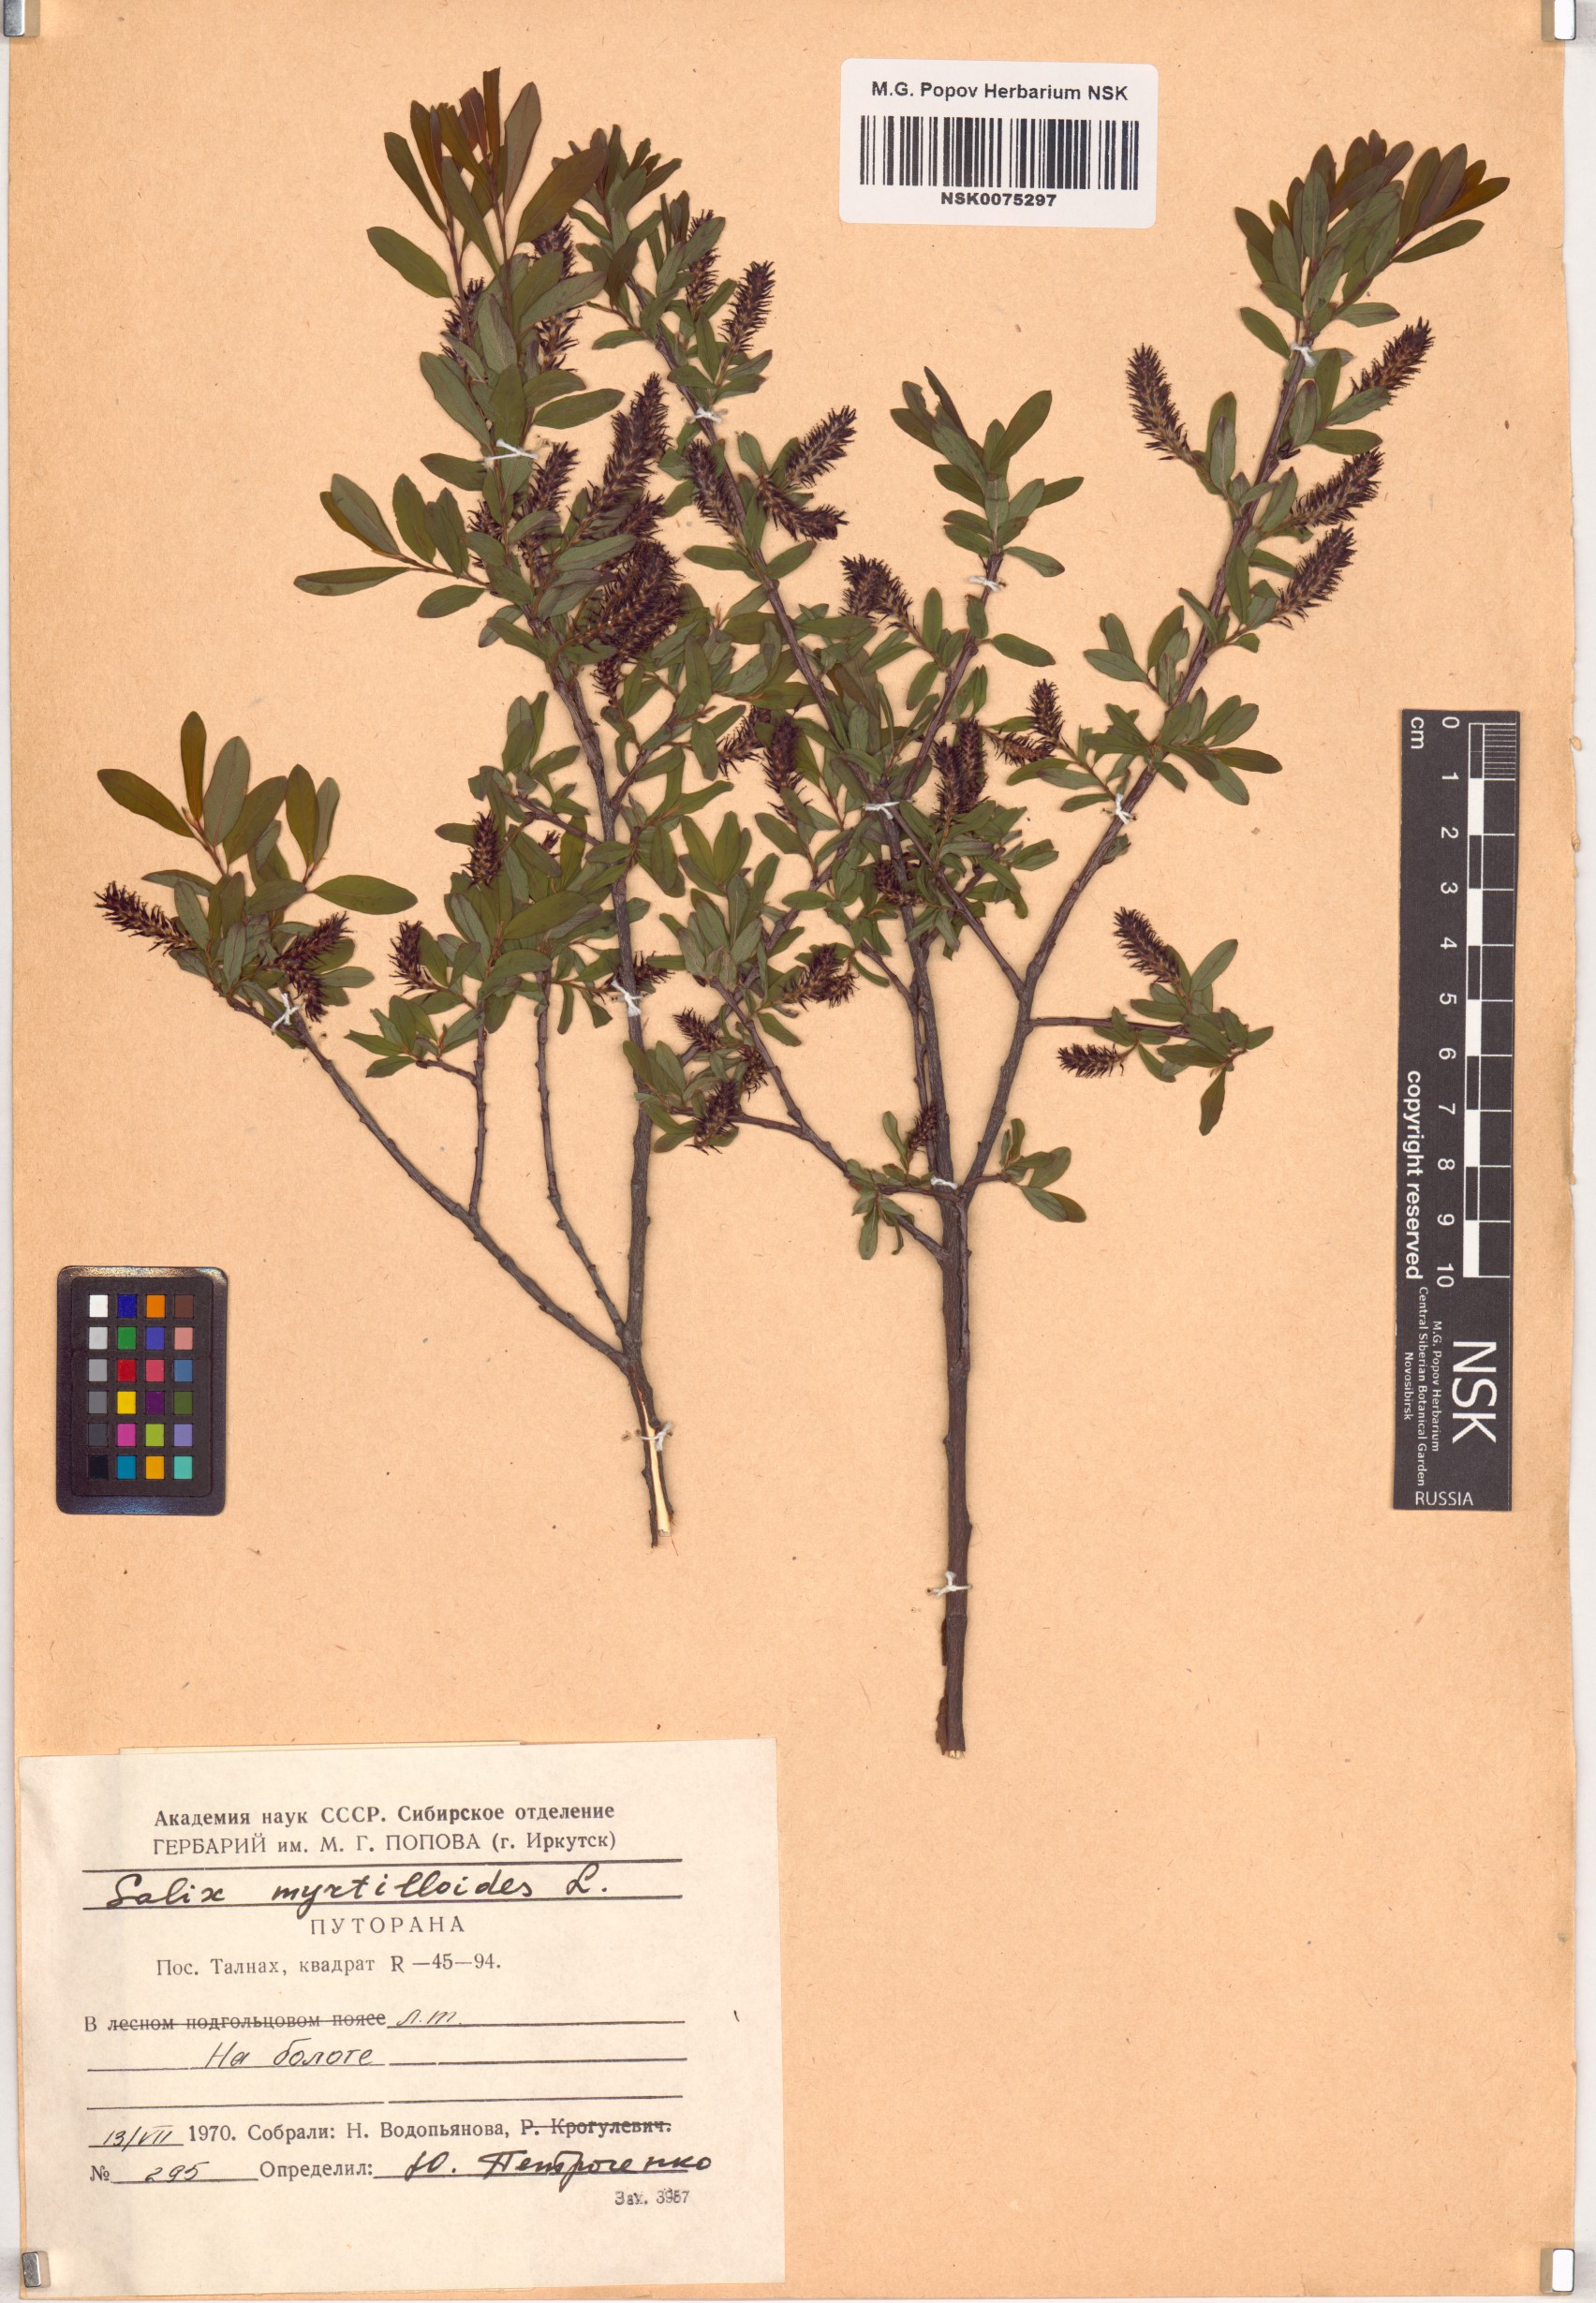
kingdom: Plantae
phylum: Tracheophyta
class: Magnoliopsida
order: Malpighiales
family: Salicaceae
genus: Salix
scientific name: Salix myrtilloides
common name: Myrtle-leaved willow
